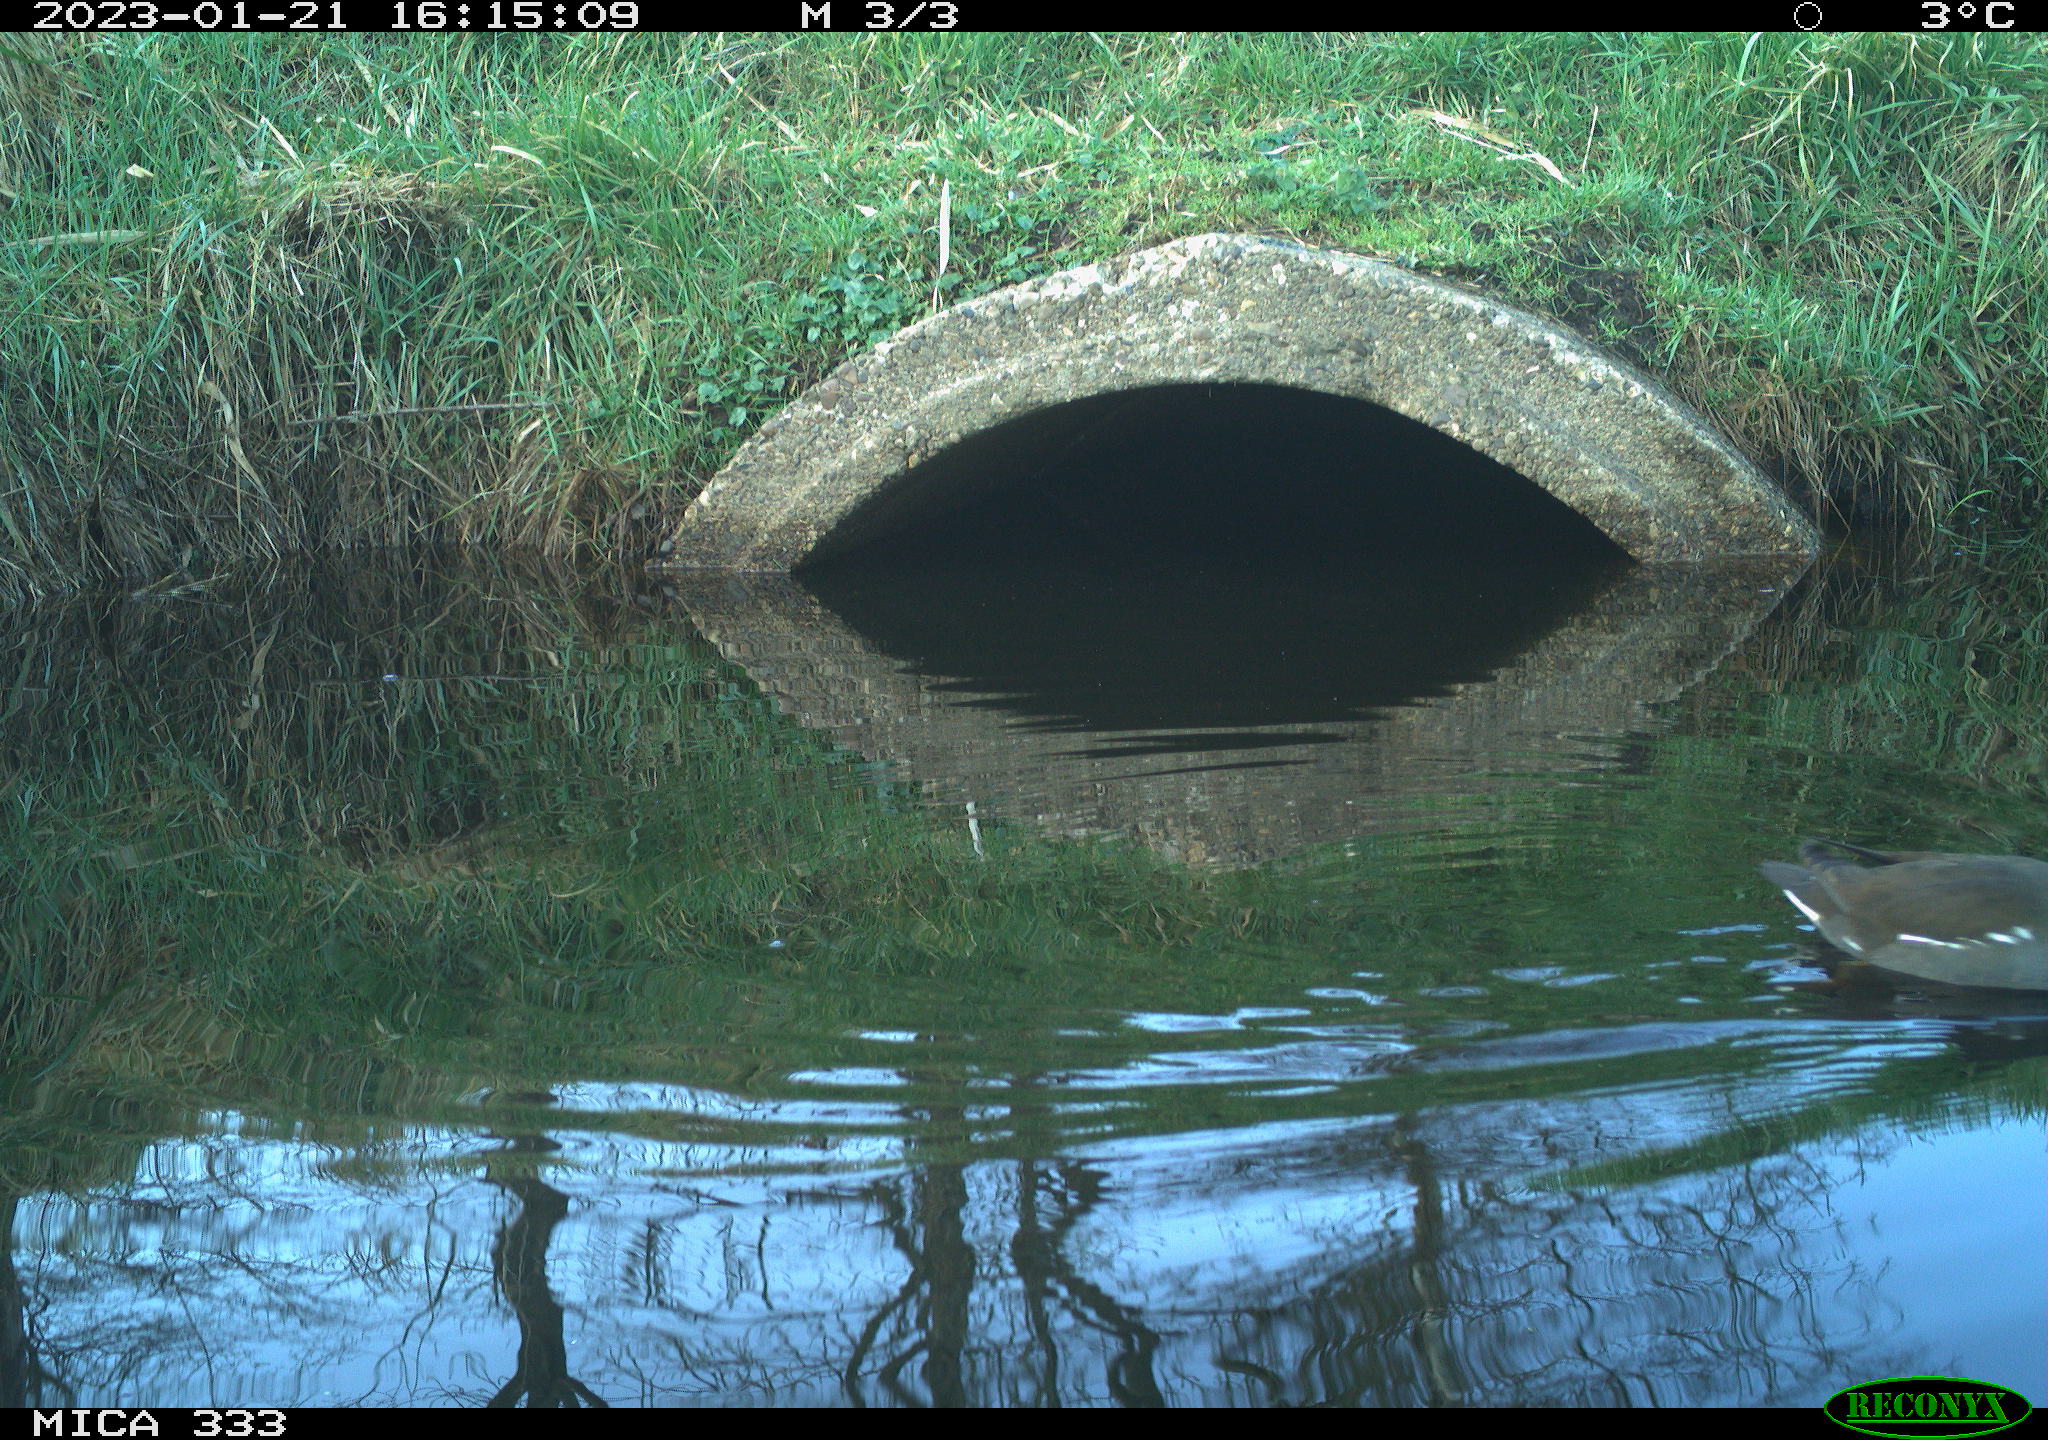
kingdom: Animalia
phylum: Chordata
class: Aves
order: Gruiformes
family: Rallidae
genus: Gallinula
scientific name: Gallinula chloropus
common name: Common moorhen
